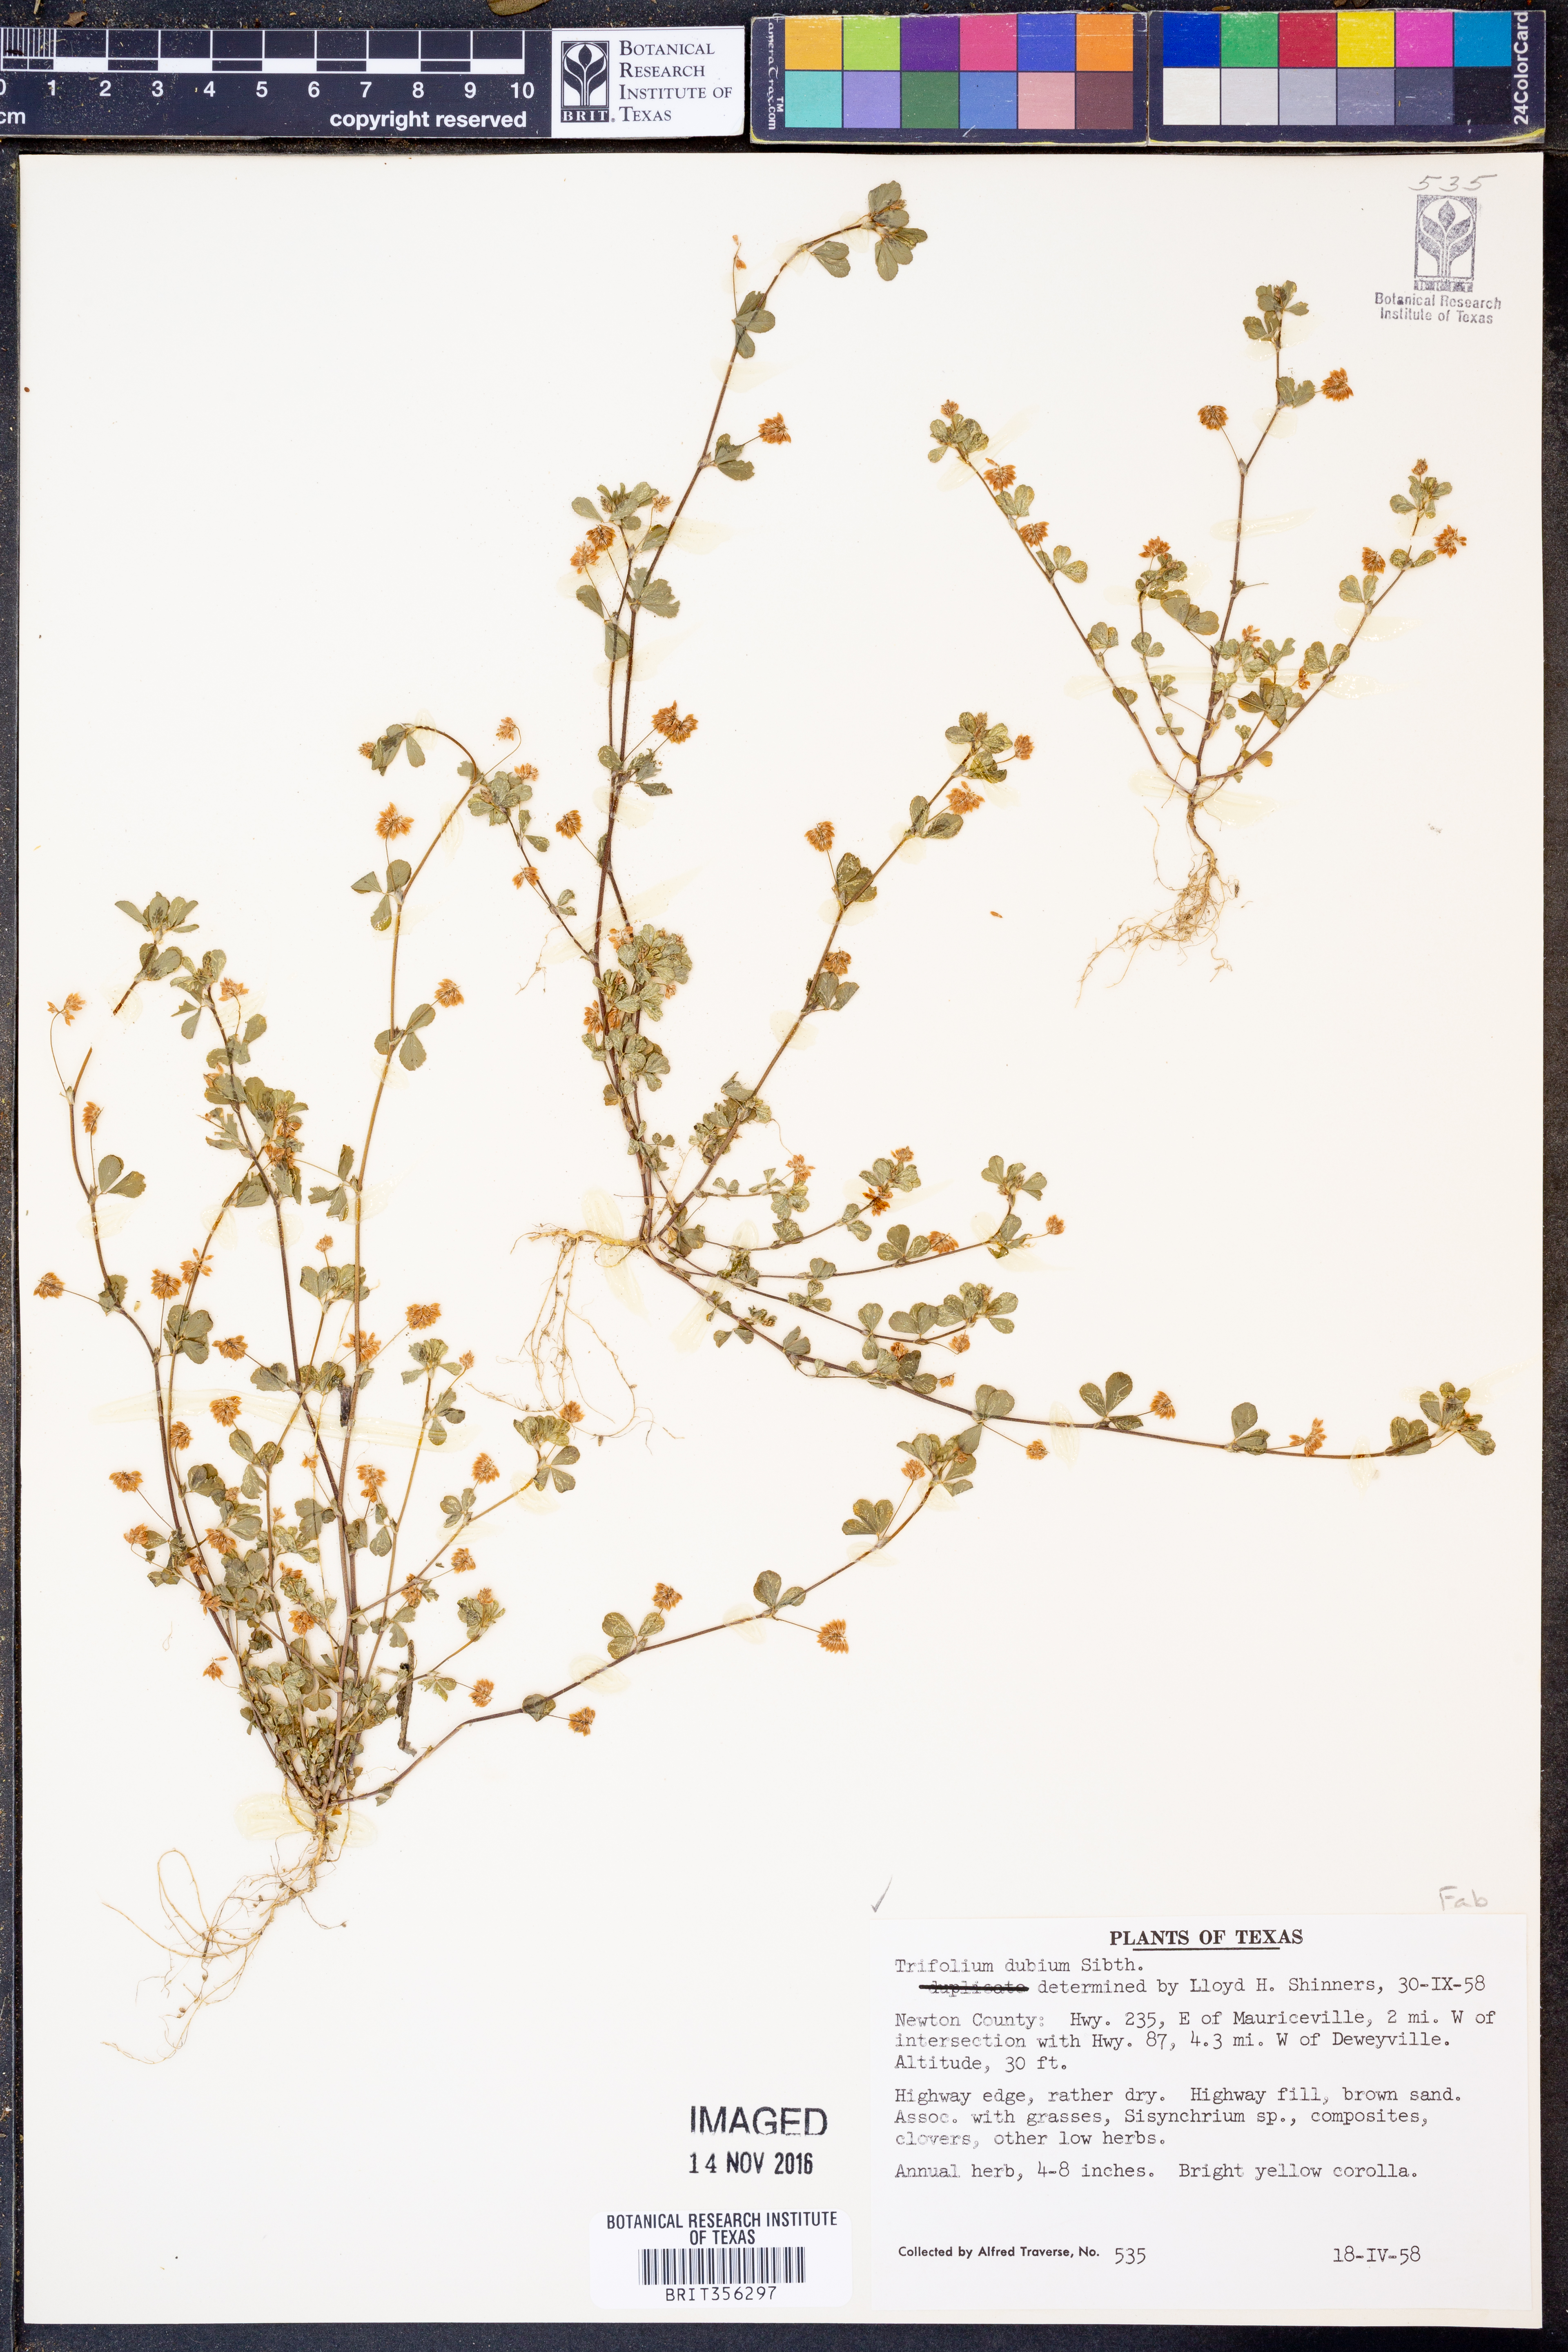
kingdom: Plantae
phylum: Tracheophyta
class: Magnoliopsida
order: Fabales
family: Fabaceae
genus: Trifolium
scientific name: Trifolium dubium
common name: Suckling clover
